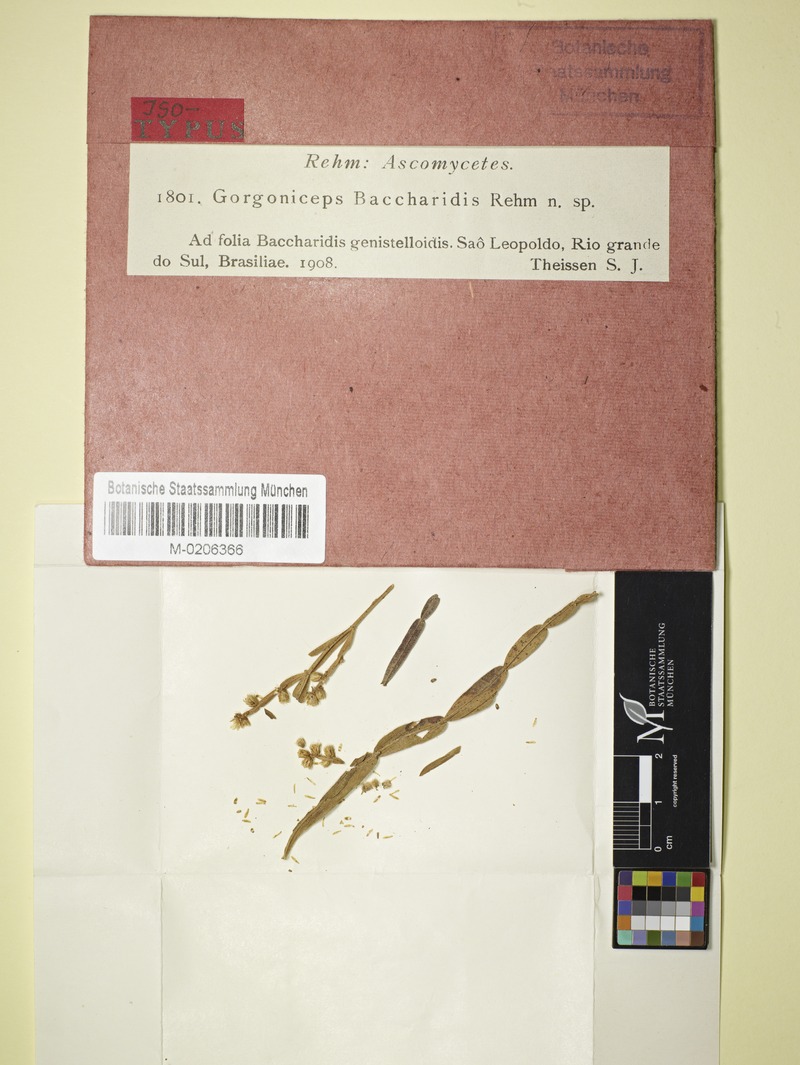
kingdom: Fungi
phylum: Ascomycota
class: Leotiomycetes
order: Helotiales
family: Helotiaceae
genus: Gorgoniceps
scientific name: Gorgoniceps baccharidis
